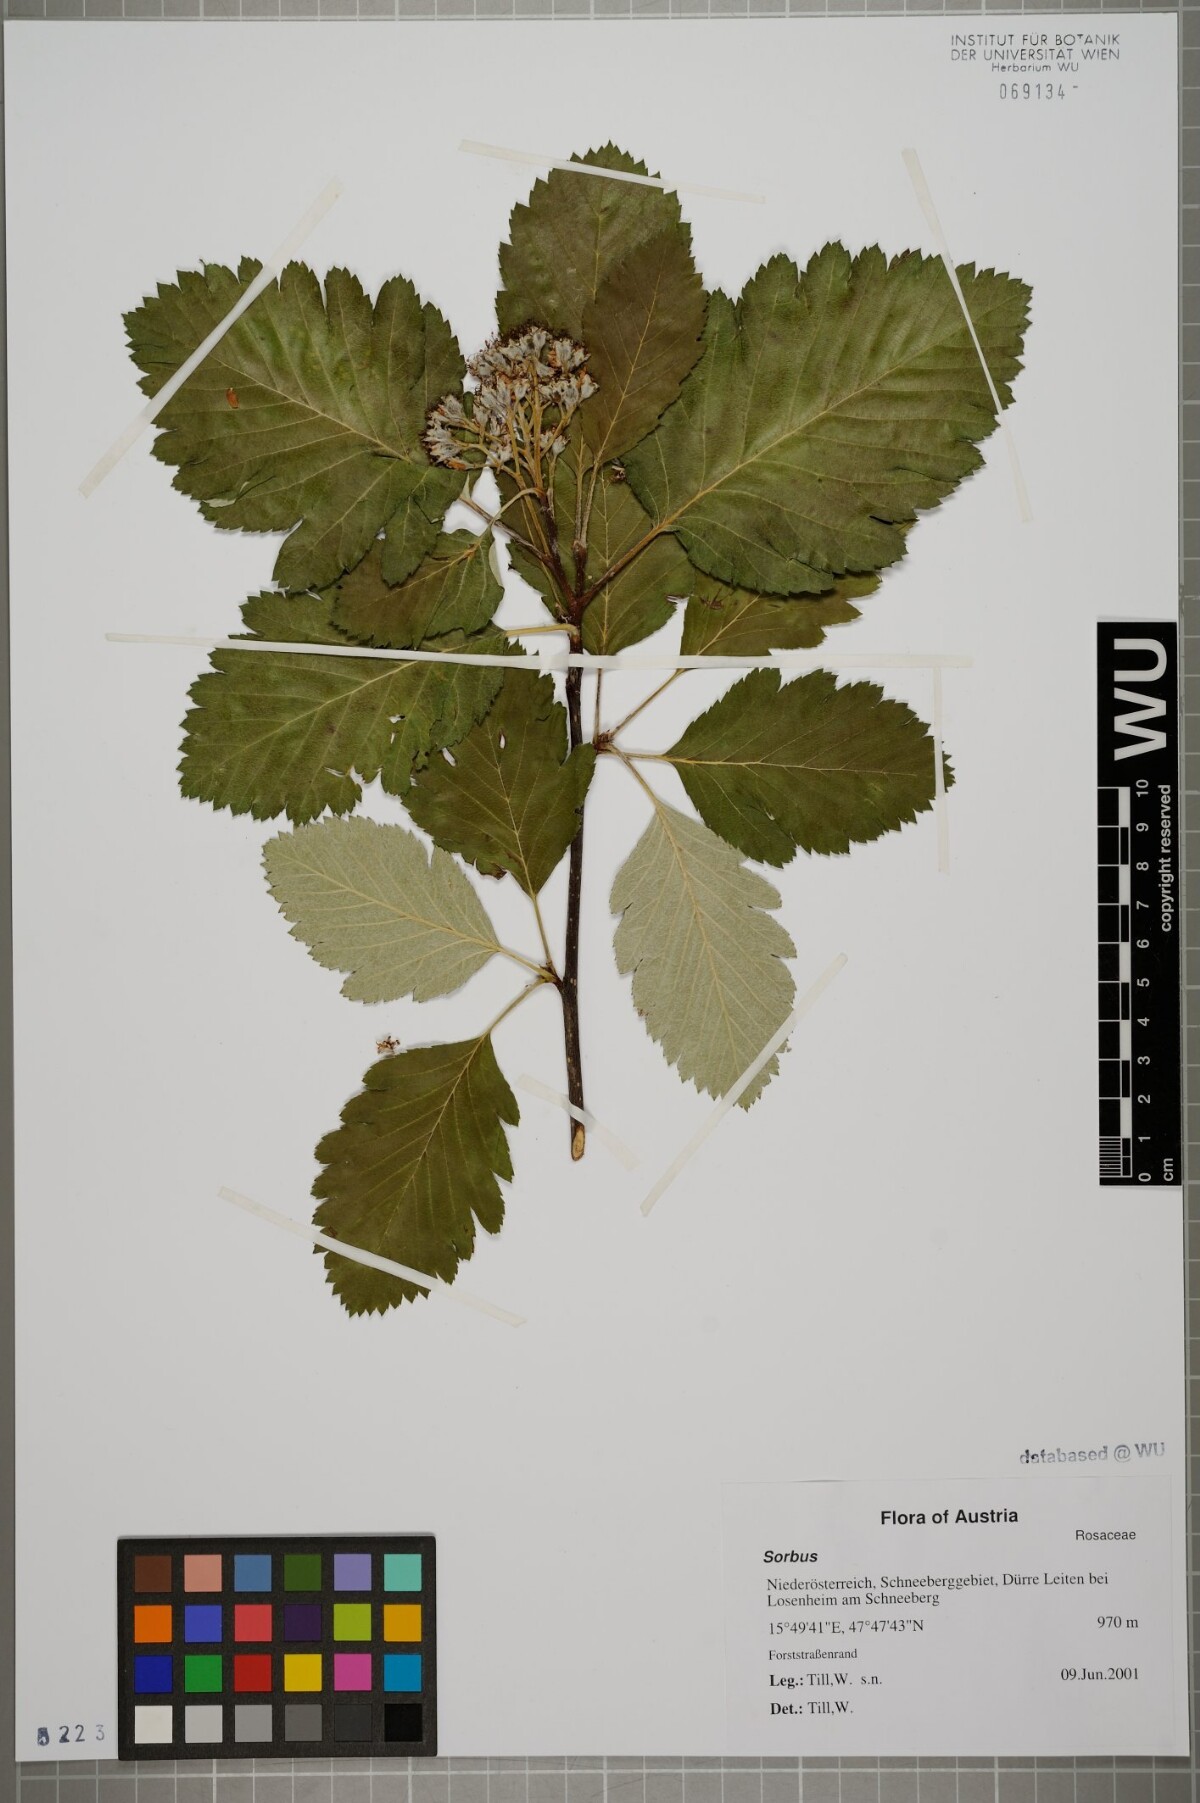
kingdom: Plantae
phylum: Tracheophyta
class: Magnoliopsida
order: Rosales
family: Rosaceae
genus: Sorbus
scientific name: Sorbus
